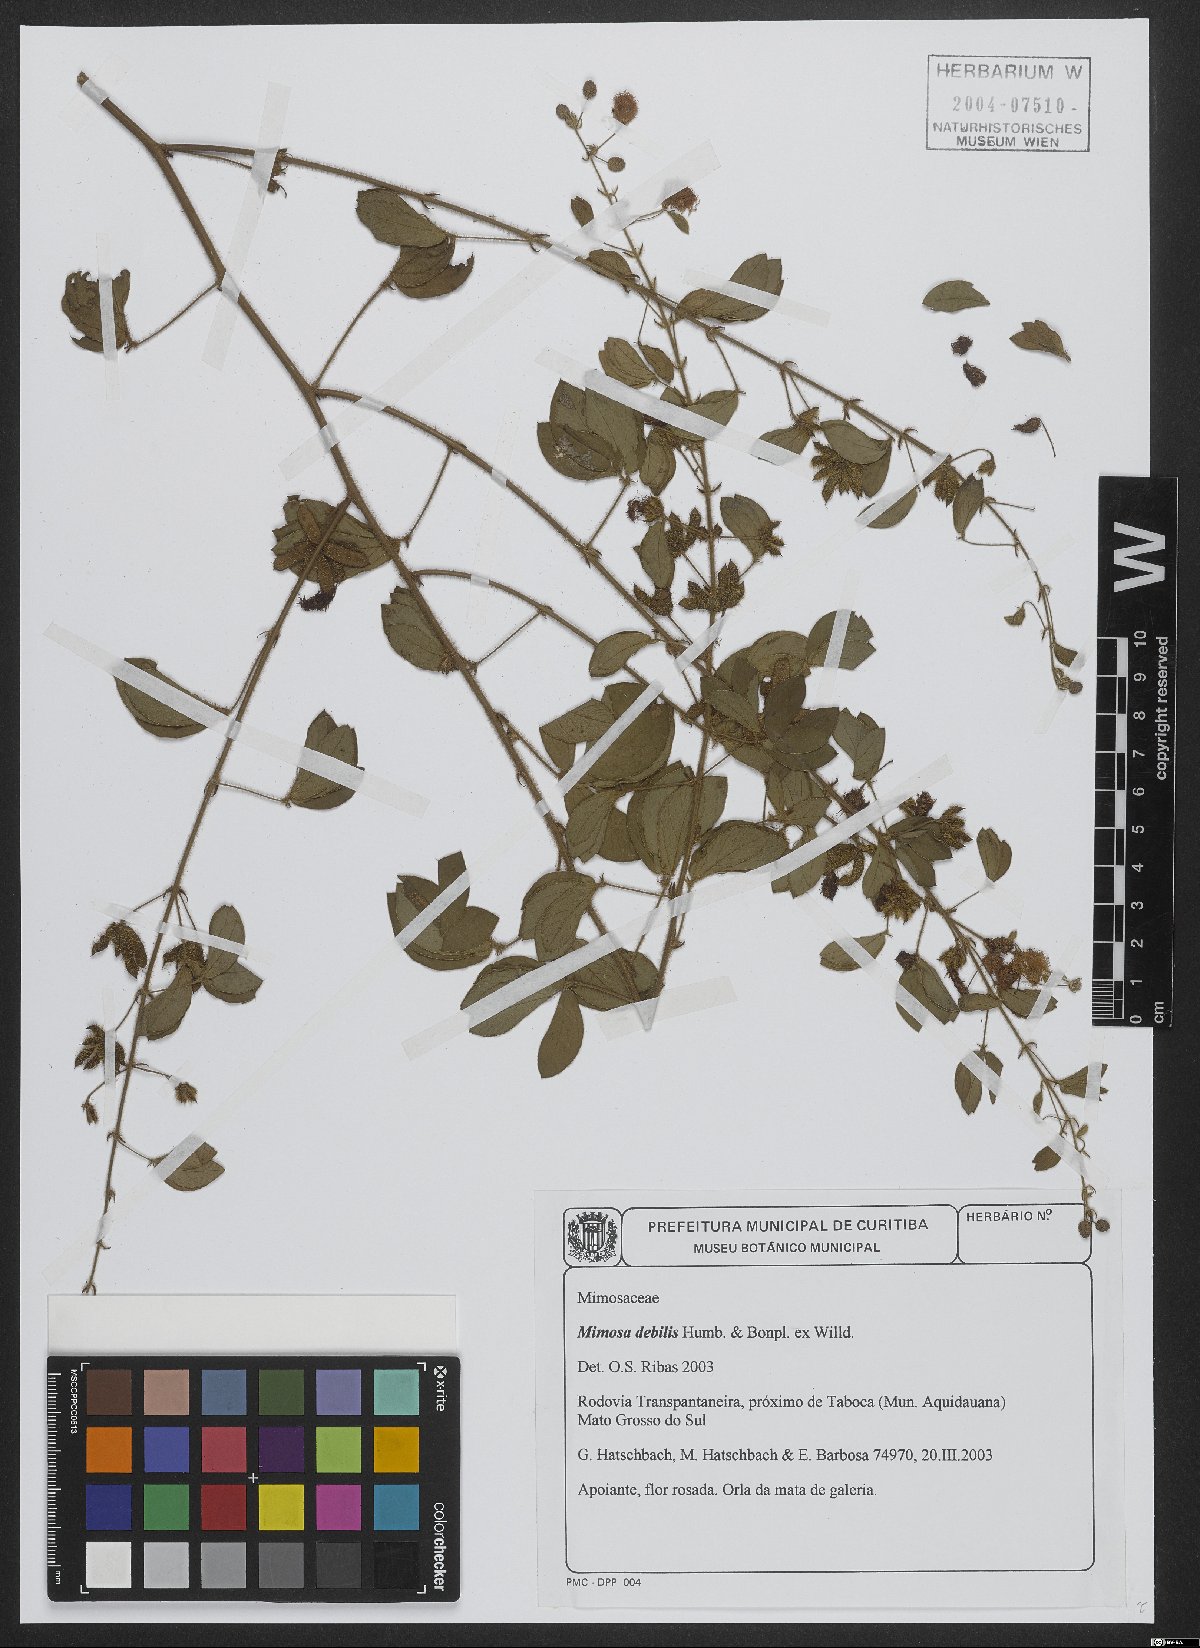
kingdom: Plantae
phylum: Tracheophyta
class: Magnoliopsida
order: Fabales
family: Fabaceae
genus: Mimosa
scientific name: Mimosa debilis
